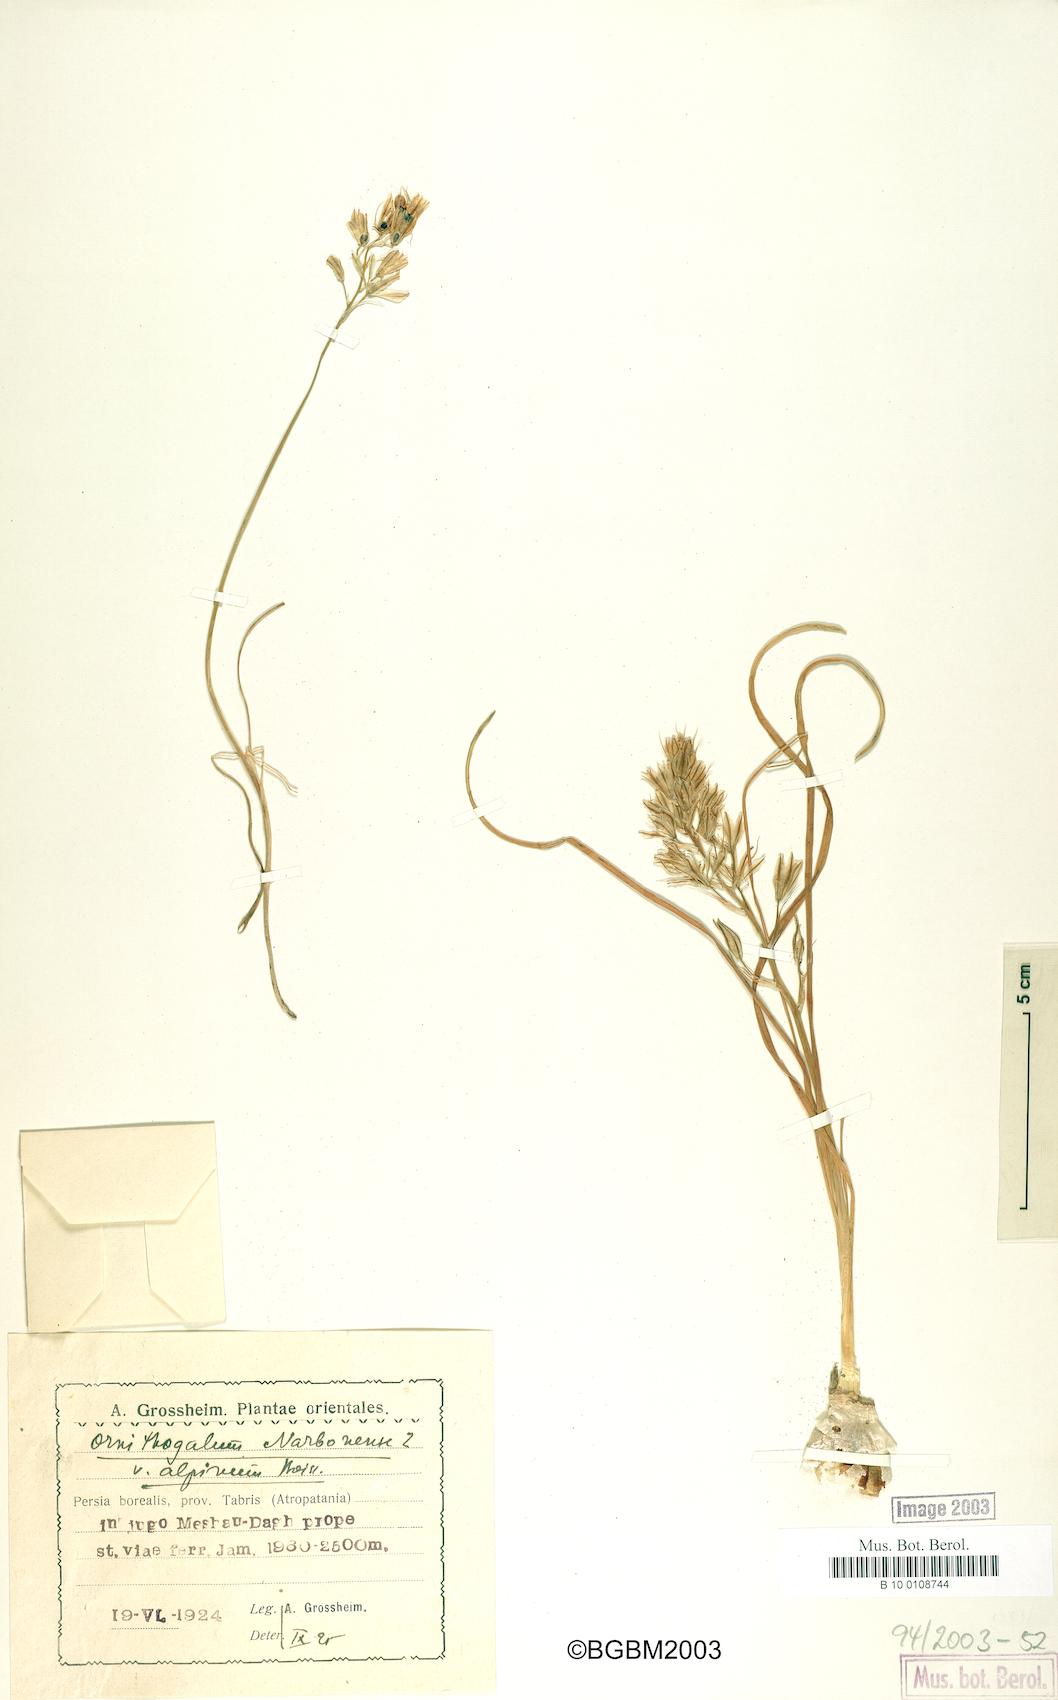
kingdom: Plantae
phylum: Tracheophyta
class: Liliopsida
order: Asparagales
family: Asparagaceae
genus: Ornithogalum
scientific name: Ornithogalum narbonense
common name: Bath-asparagus
